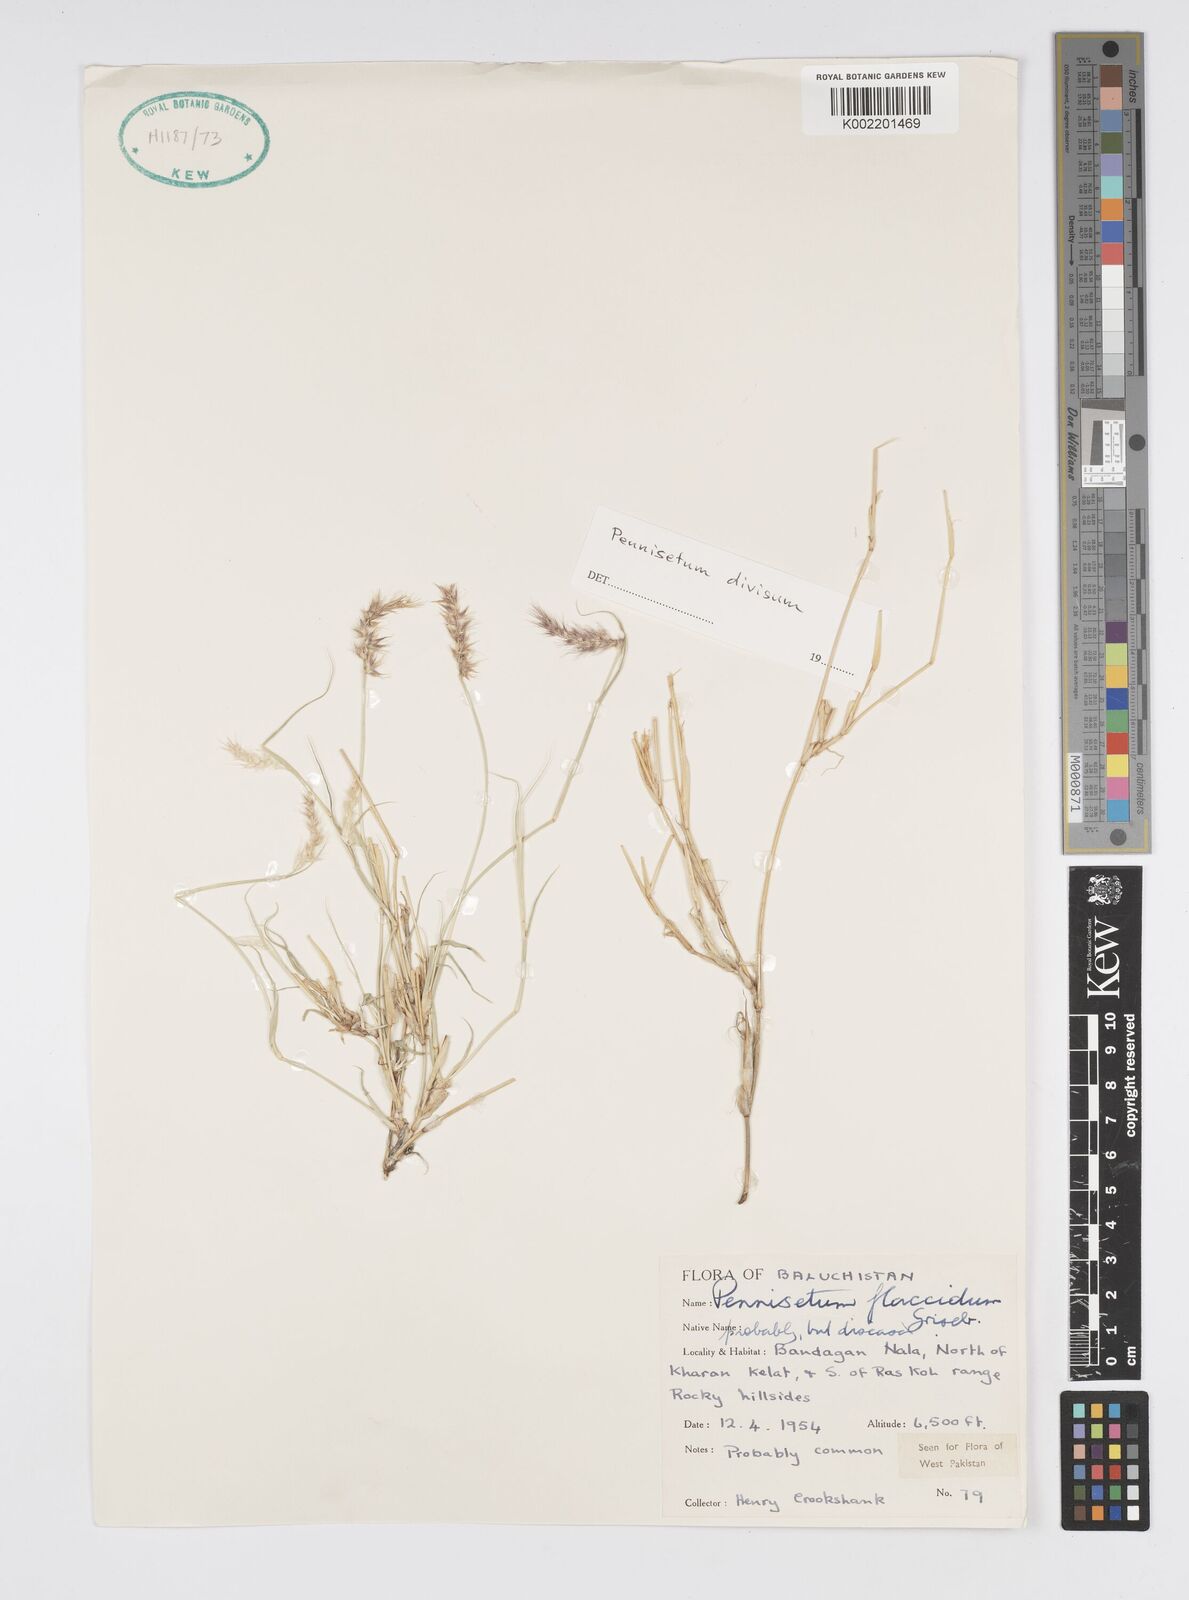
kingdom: Plantae
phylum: Tracheophyta
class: Liliopsida
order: Poales
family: Poaceae
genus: Cenchrus
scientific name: Cenchrus divisus
